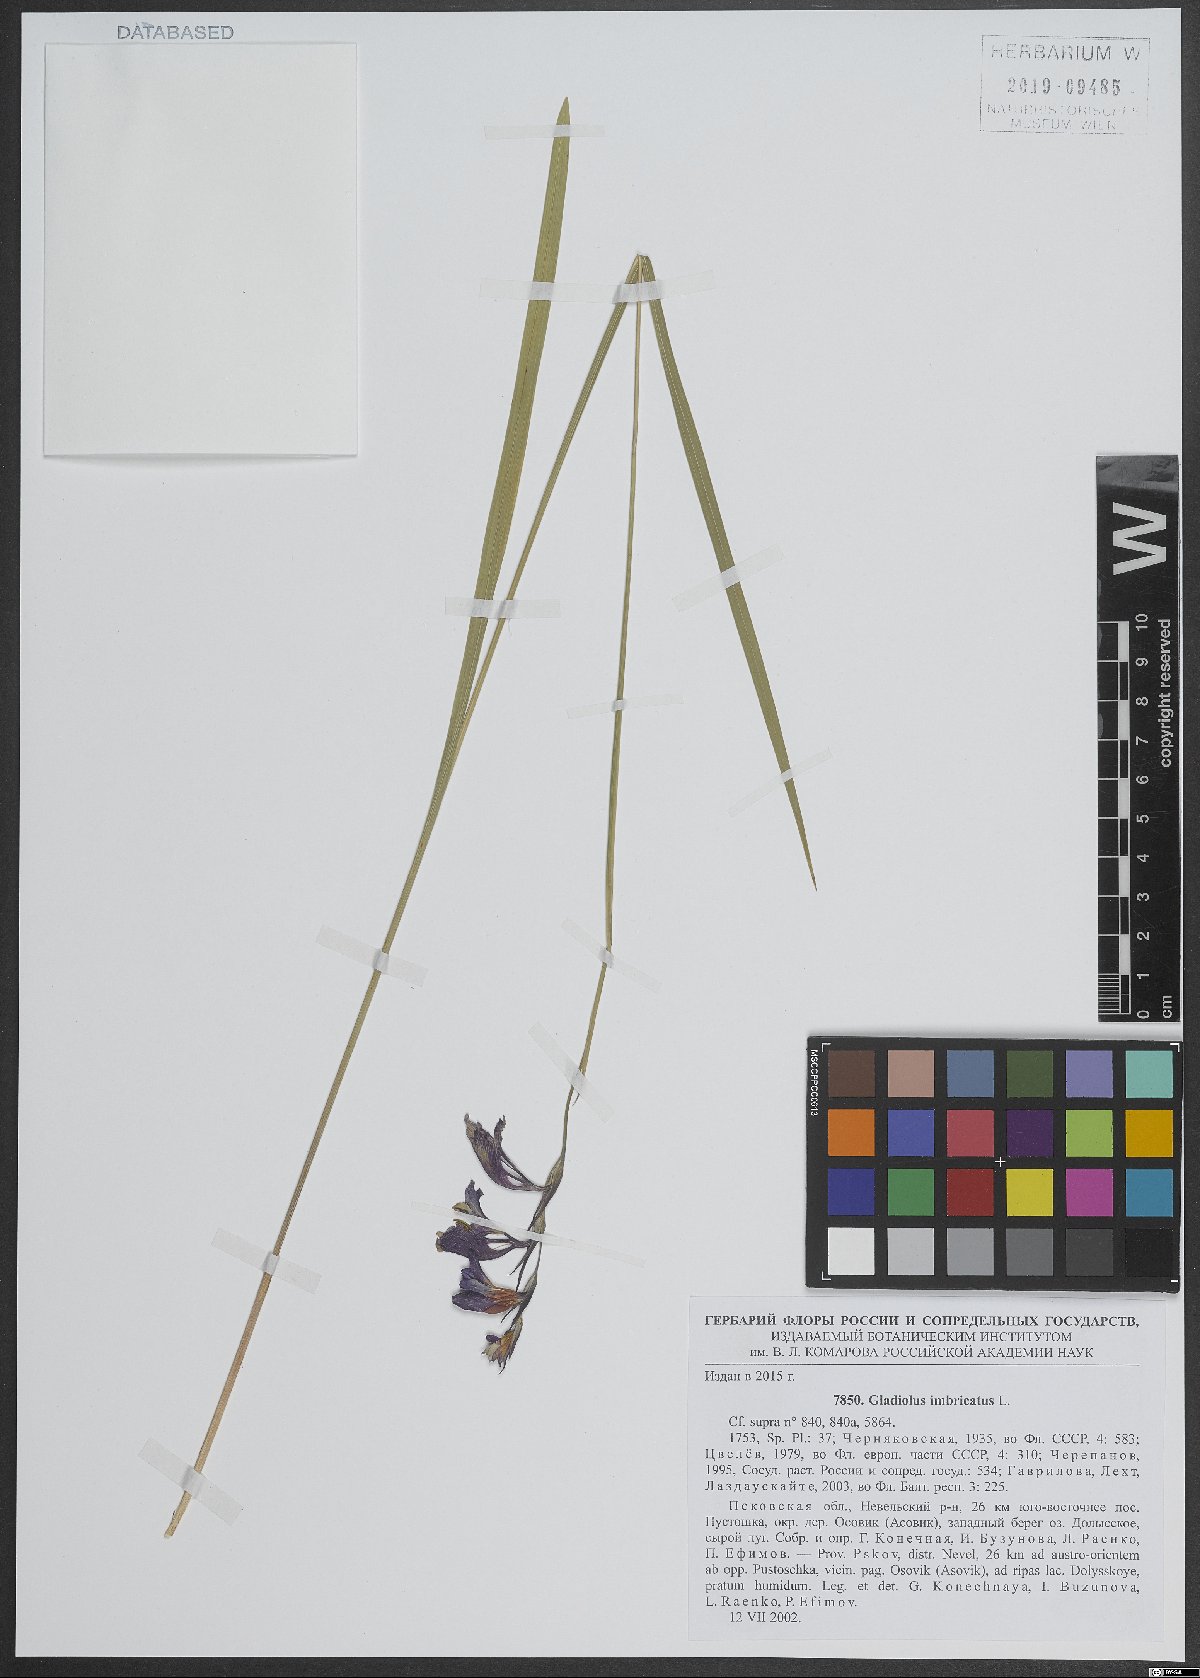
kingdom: Plantae
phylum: Tracheophyta
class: Liliopsida
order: Asparagales
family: Iridaceae
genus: Gladiolus
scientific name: Gladiolus imbricatus
